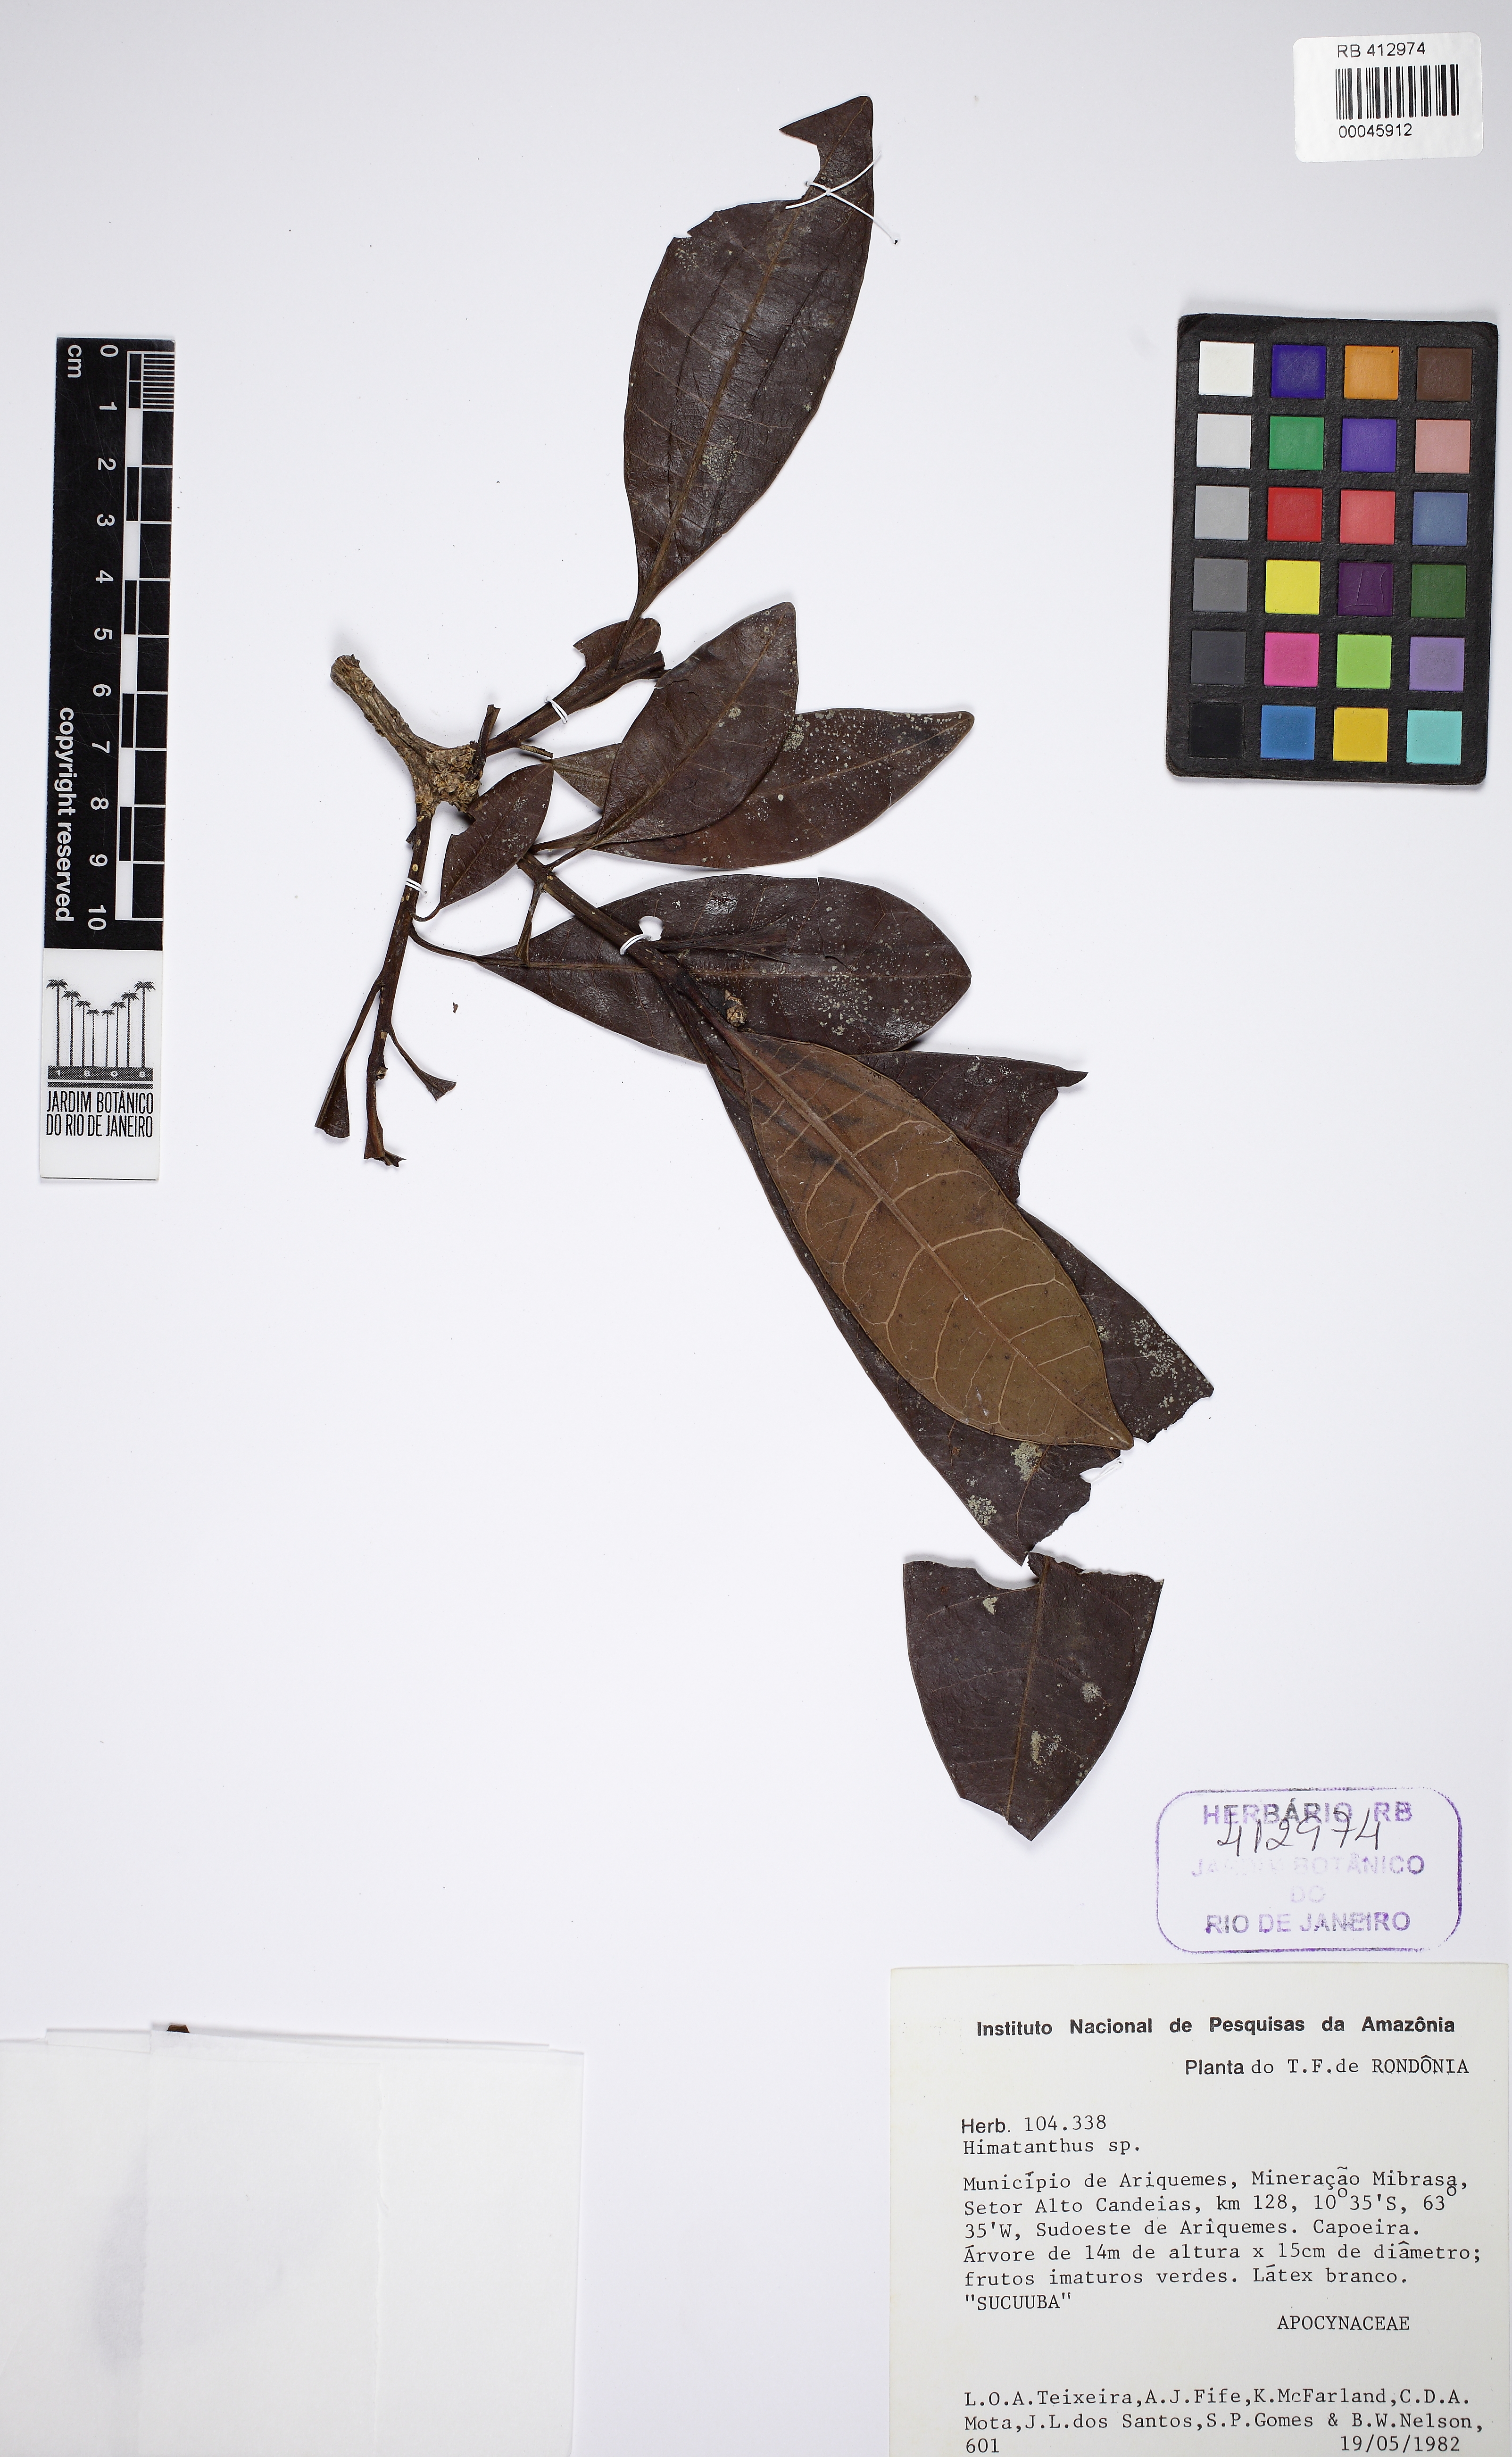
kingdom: Plantae
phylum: Tracheophyta
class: Magnoliopsida
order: Gentianales
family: Apocynaceae
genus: Himatanthus
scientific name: Himatanthus
